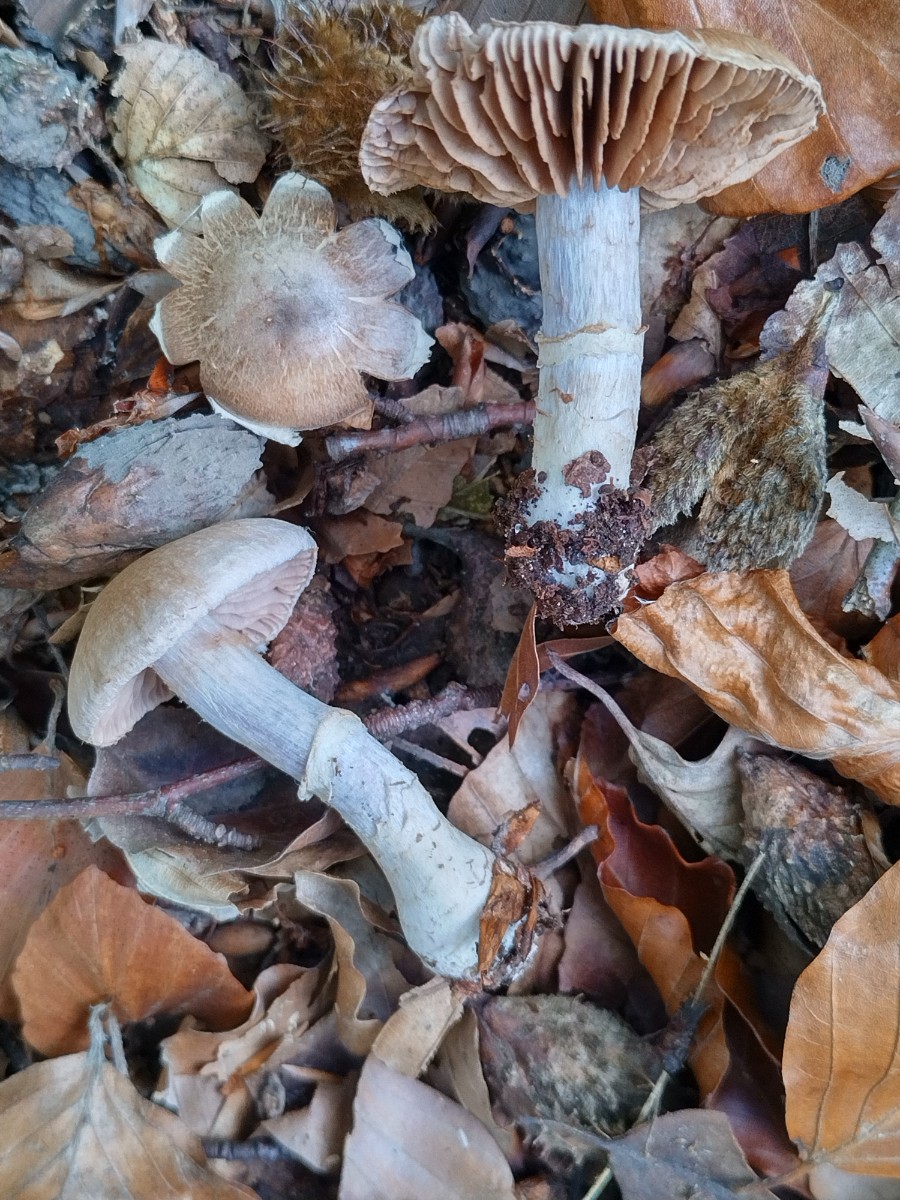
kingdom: Fungi
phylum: Basidiomycota
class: Agaricomycetes
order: Agaricales
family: Cortinariaceae
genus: Cortinarius
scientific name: Cortinarius torvus
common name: champignonagtig slørhat
